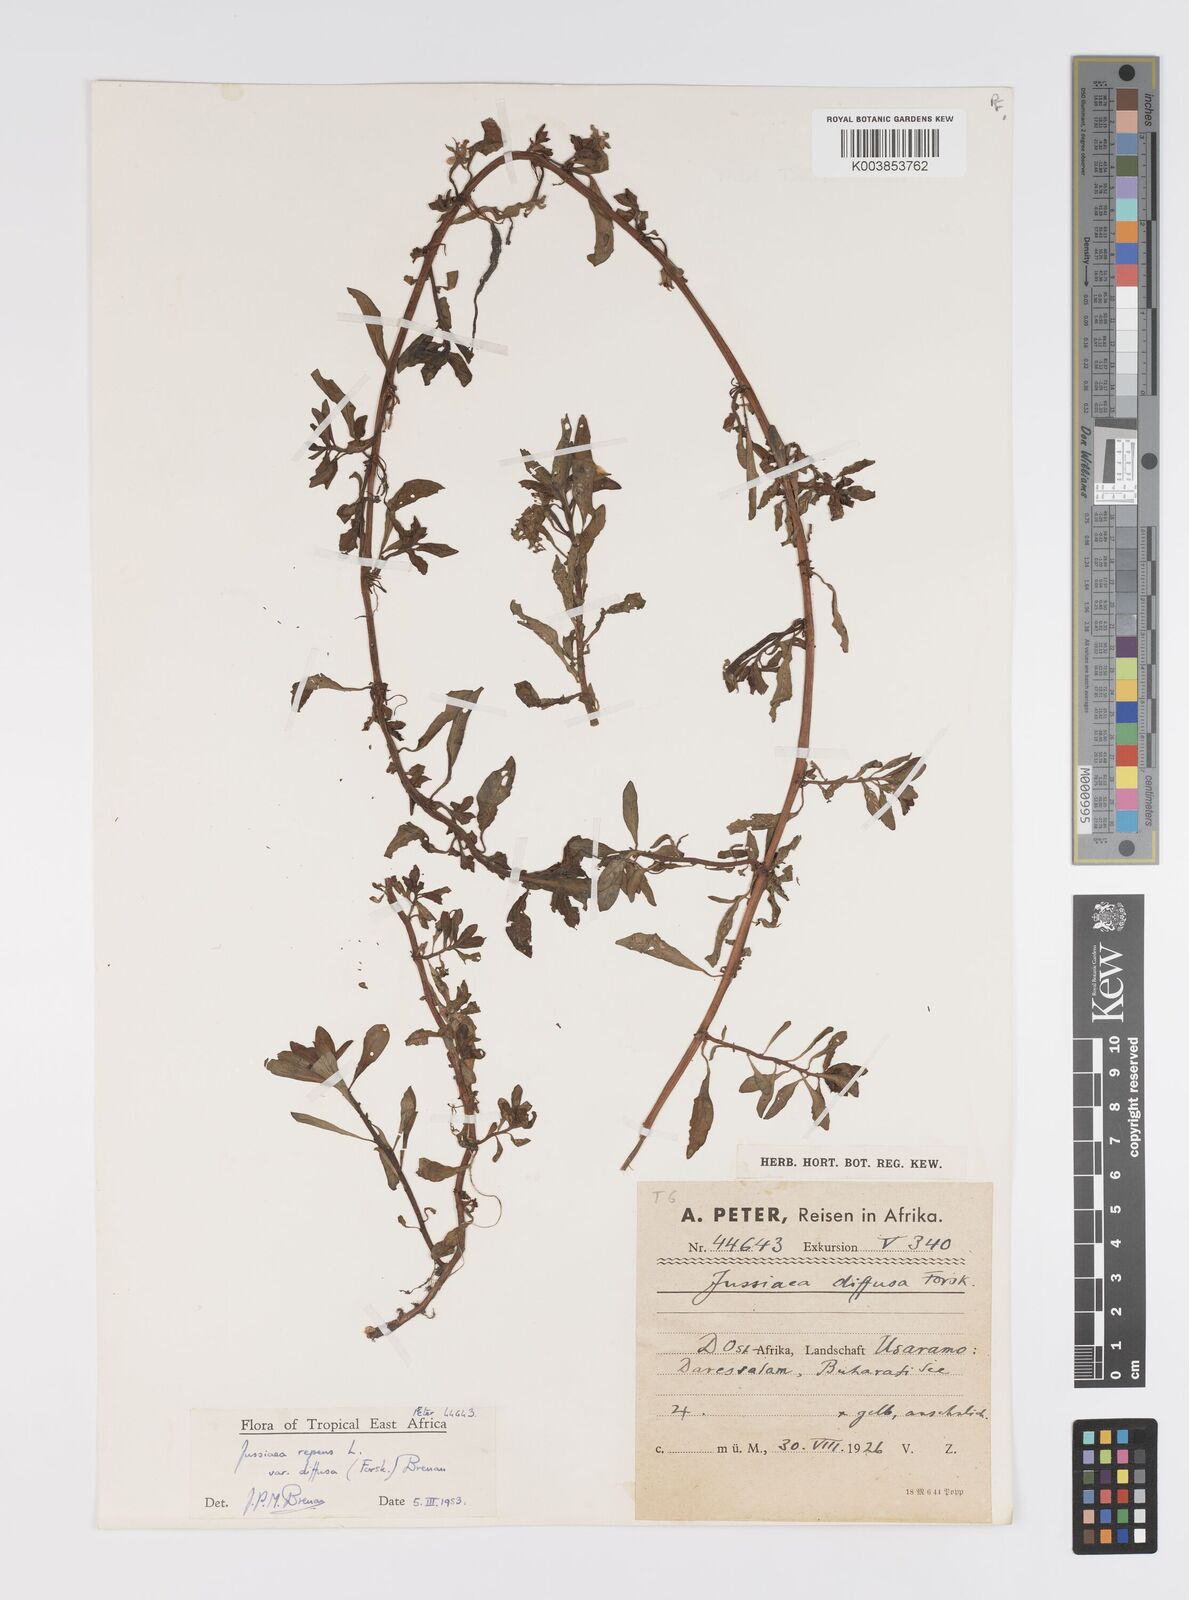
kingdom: Plantae
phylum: Tracheophyta
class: Magnoliopsida
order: Myrtales
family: Onagraceae
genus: Ludwigia
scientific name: Ludwigia repens
